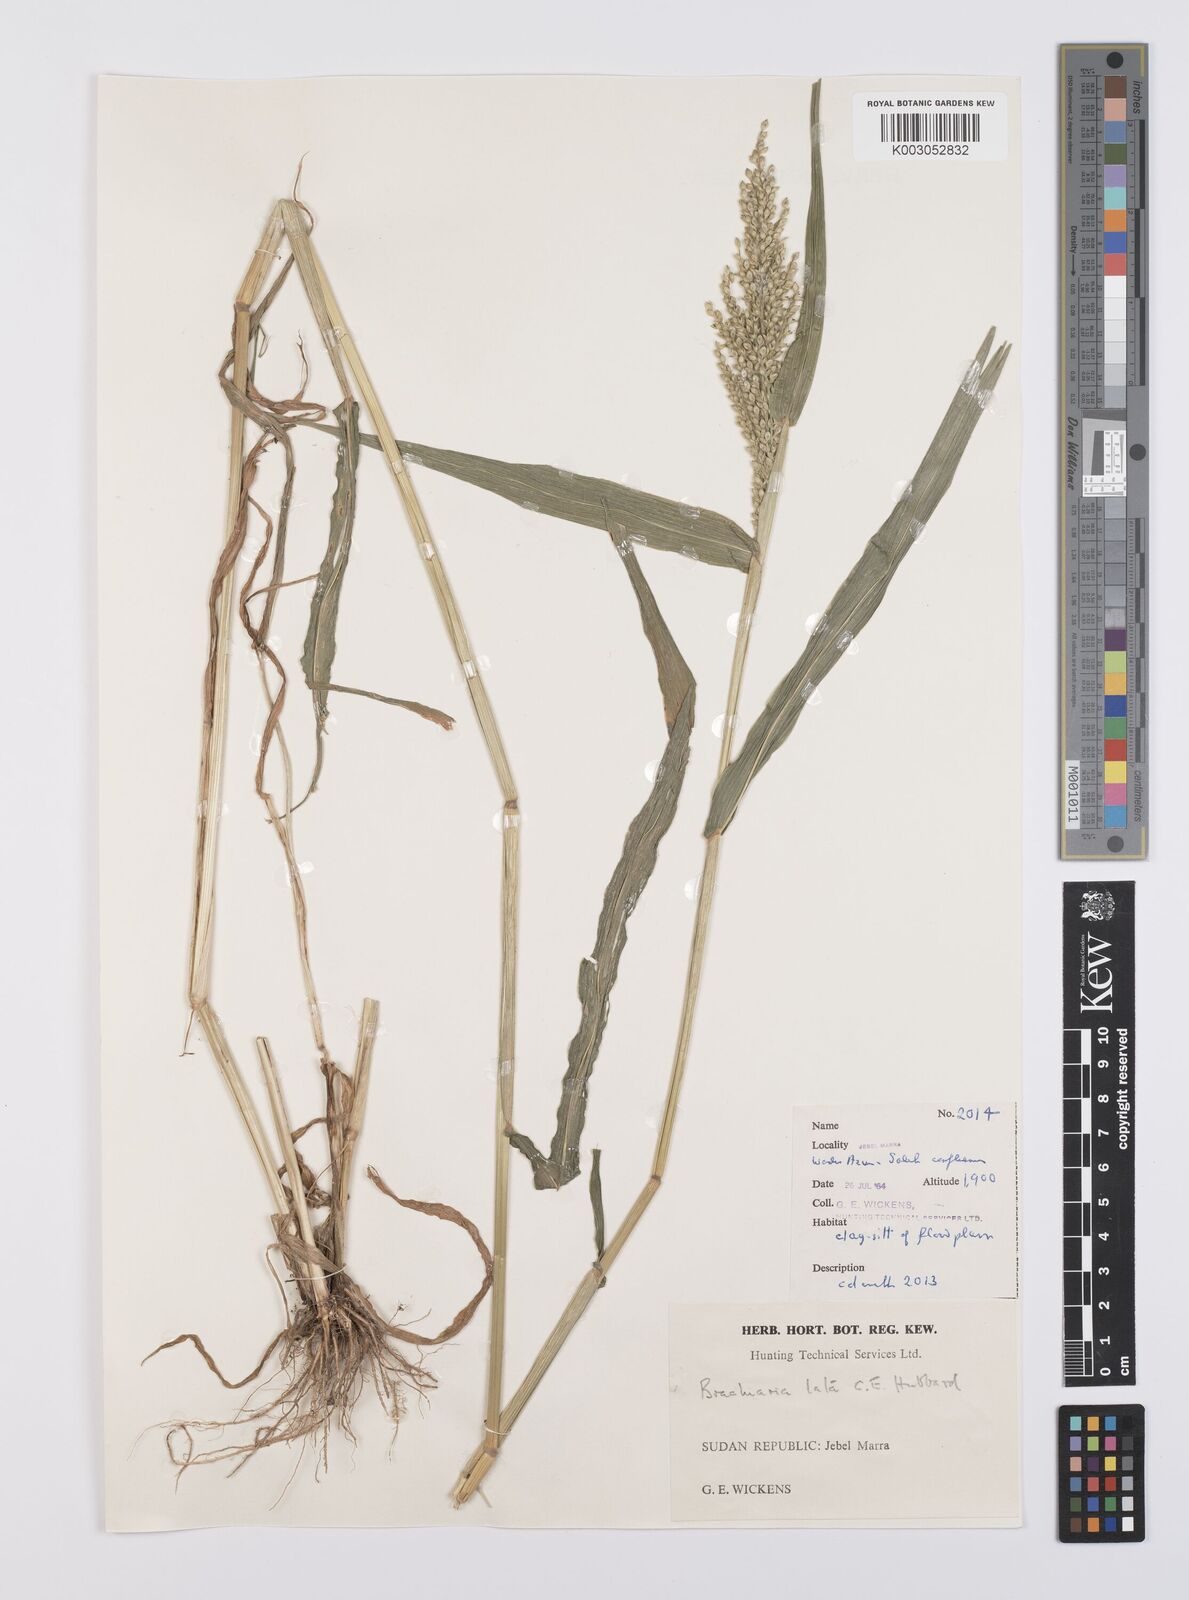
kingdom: Plantae
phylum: Tracheophyta
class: Liliopsida
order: Poales
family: Poaceae
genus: Urochloa
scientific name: Urochloa lata
